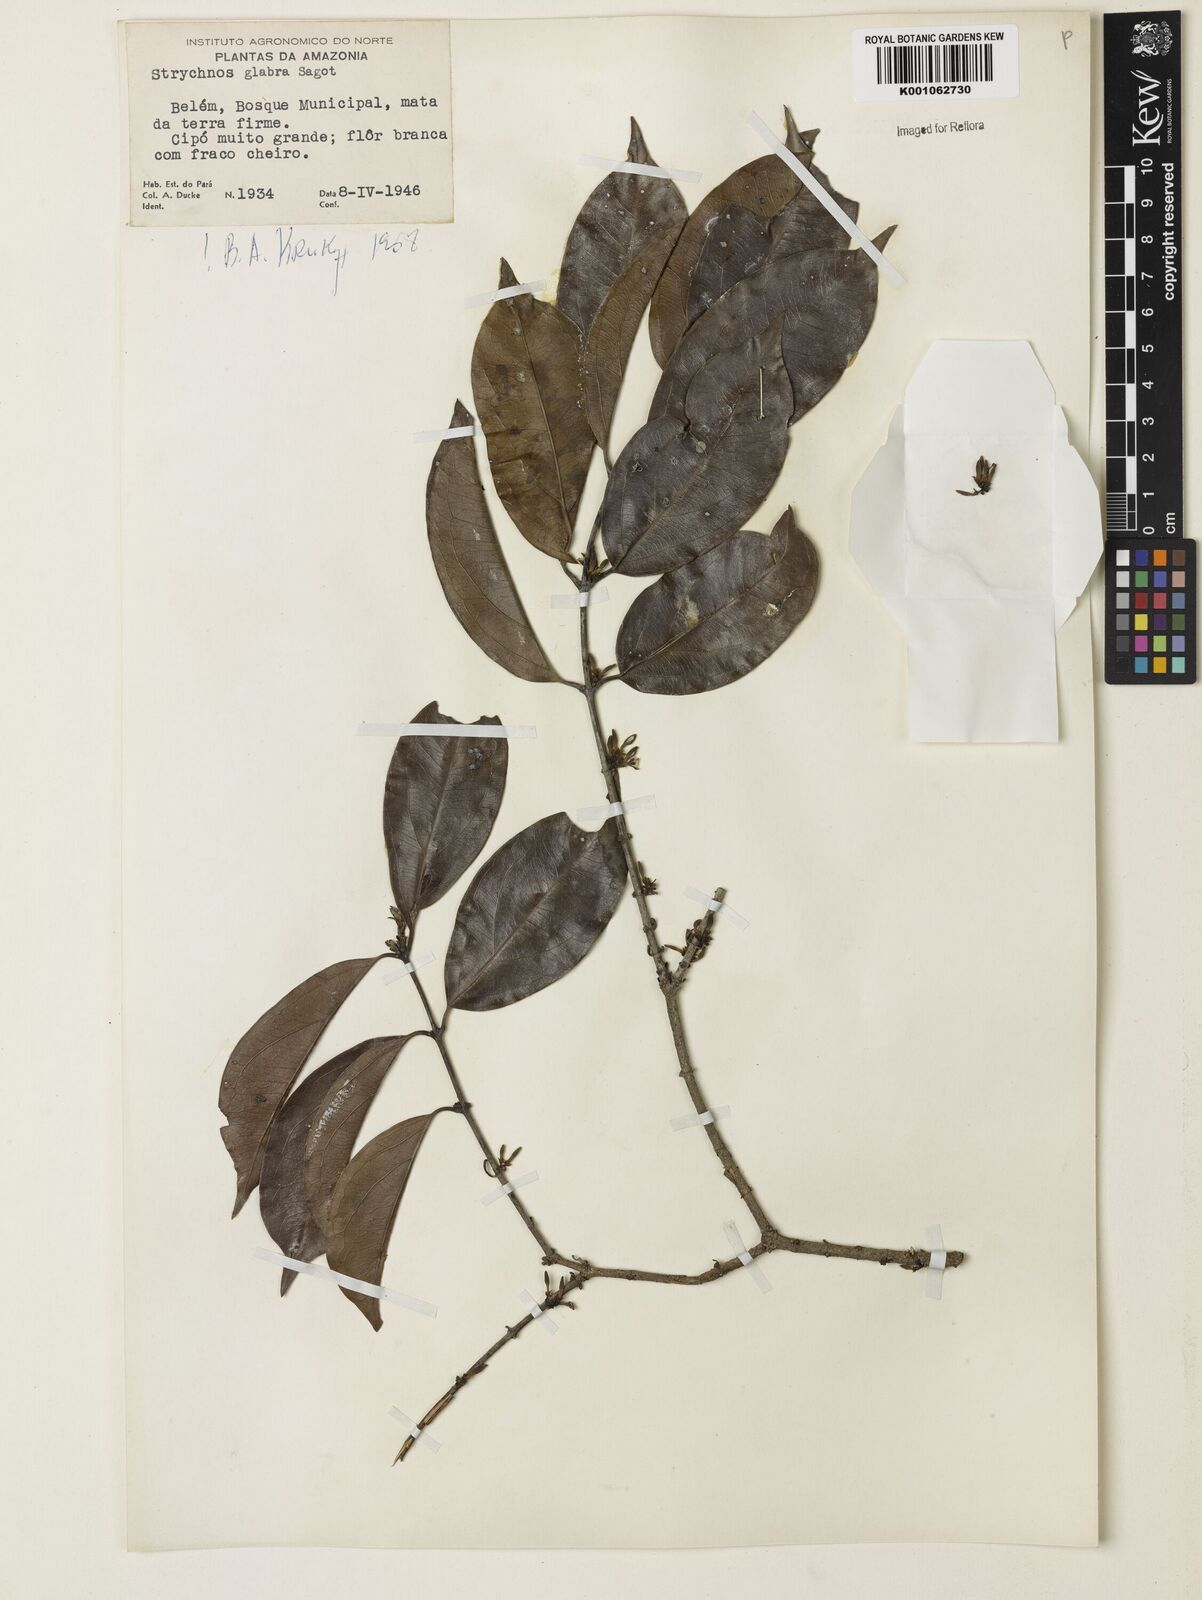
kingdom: Plantae
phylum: Tracheophyta
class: Magnoliopsida
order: Gentianales
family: Loganiaceae
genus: Strychnos
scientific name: Strychnos glabra
